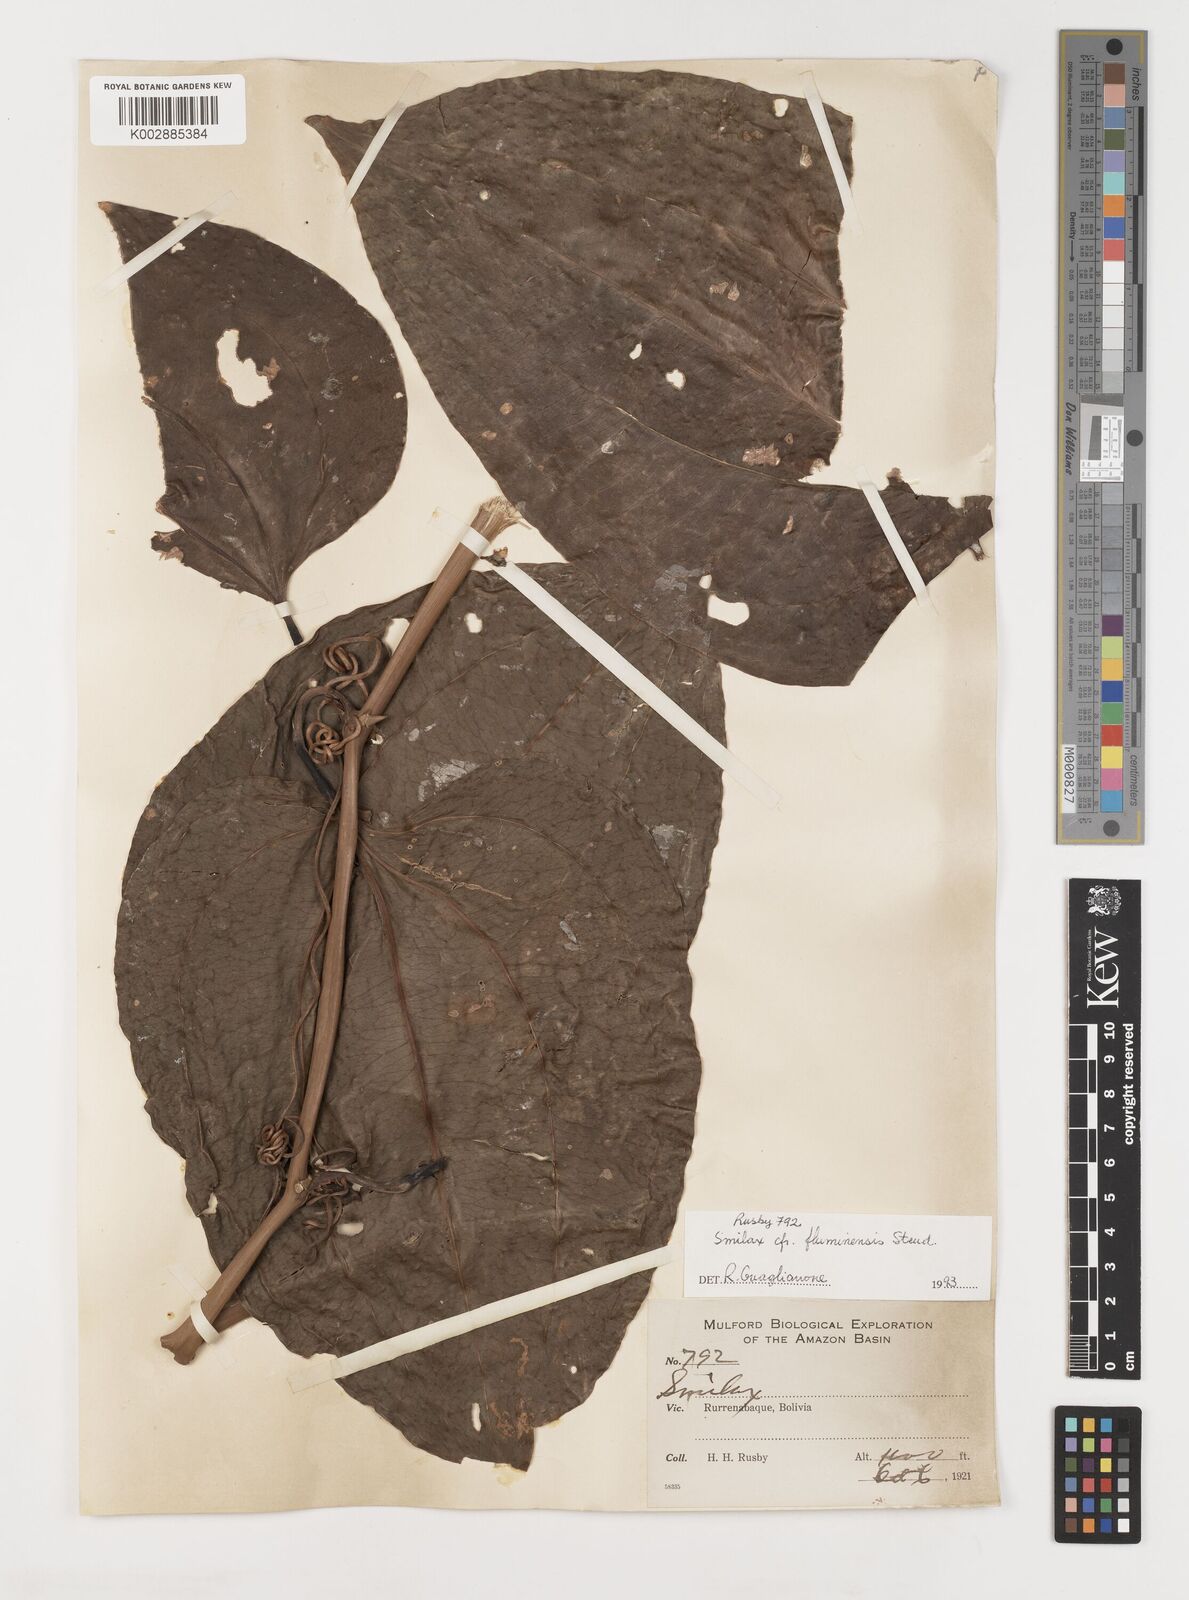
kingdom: Plantae
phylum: Tracheophyta
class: Liliopsida
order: Liliales
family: Smilacaceae
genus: Smilax
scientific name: Smilax
